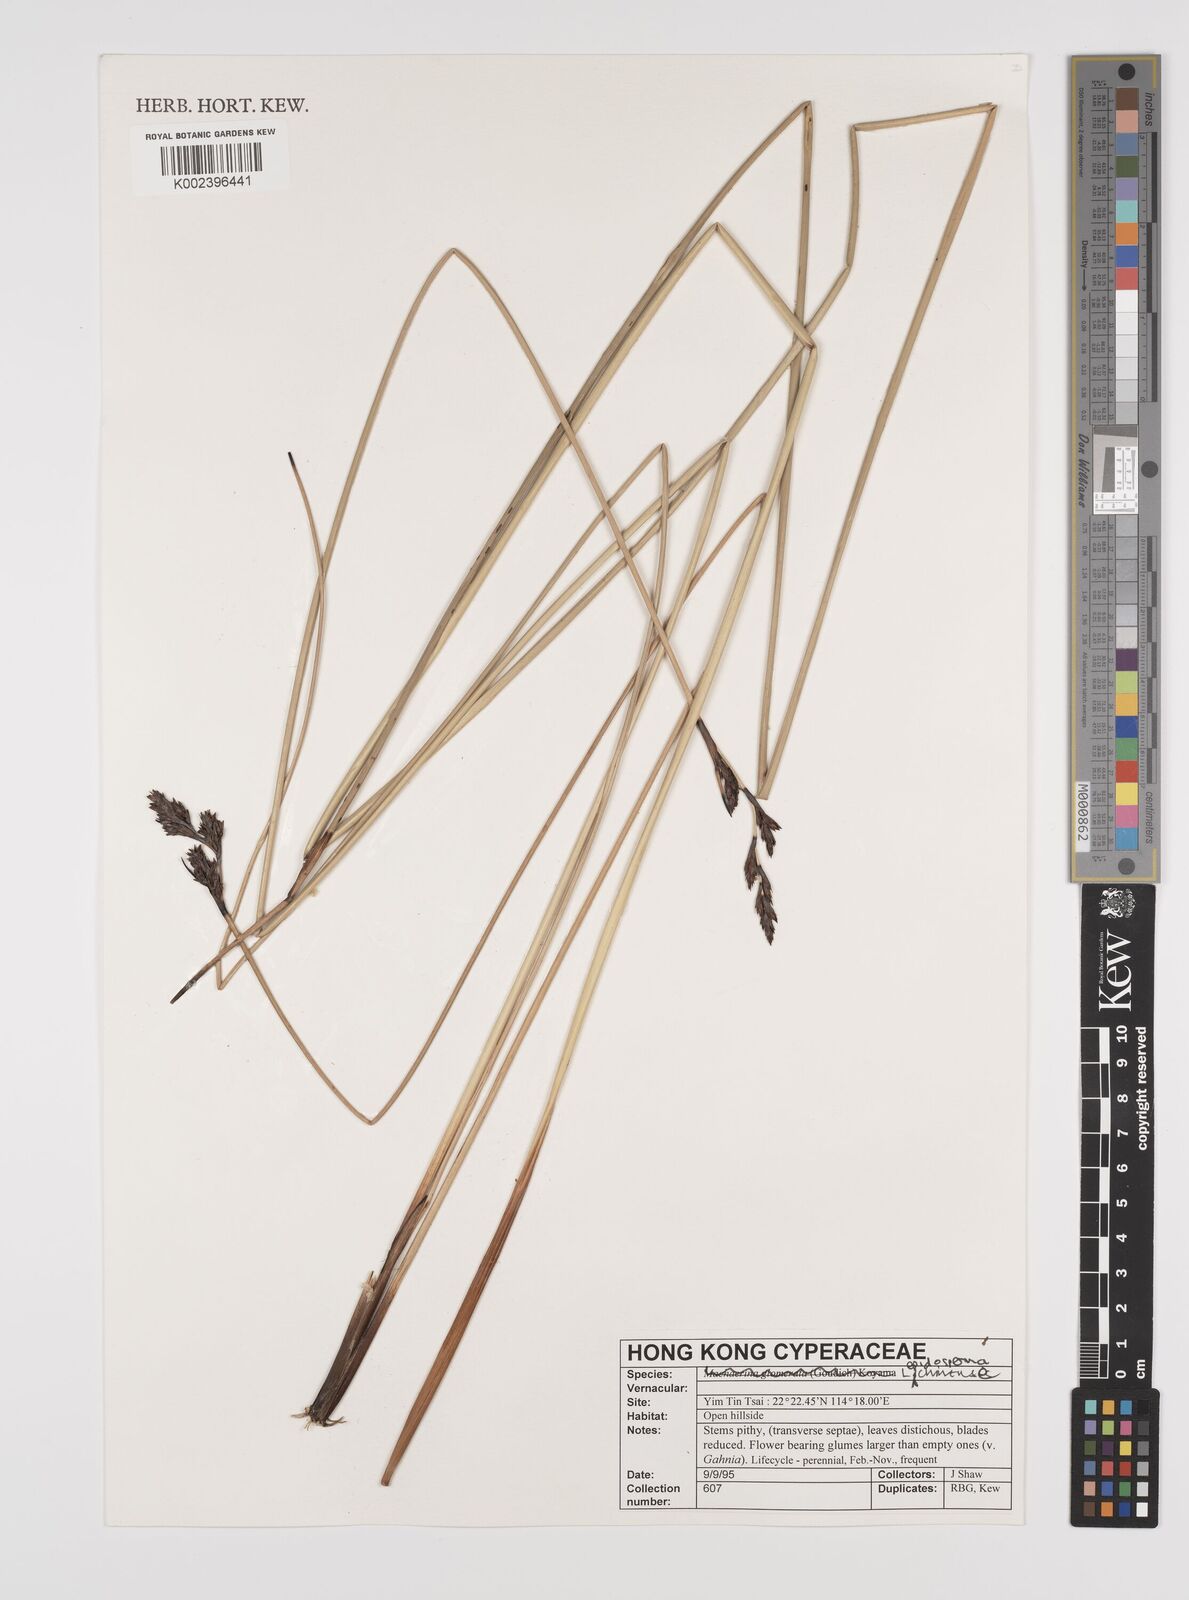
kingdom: Plantae
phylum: Tracheophyta
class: Liliopsida
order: Poales
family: Cyperaceae
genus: Lepidosperma
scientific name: Lepidosperma chinense
